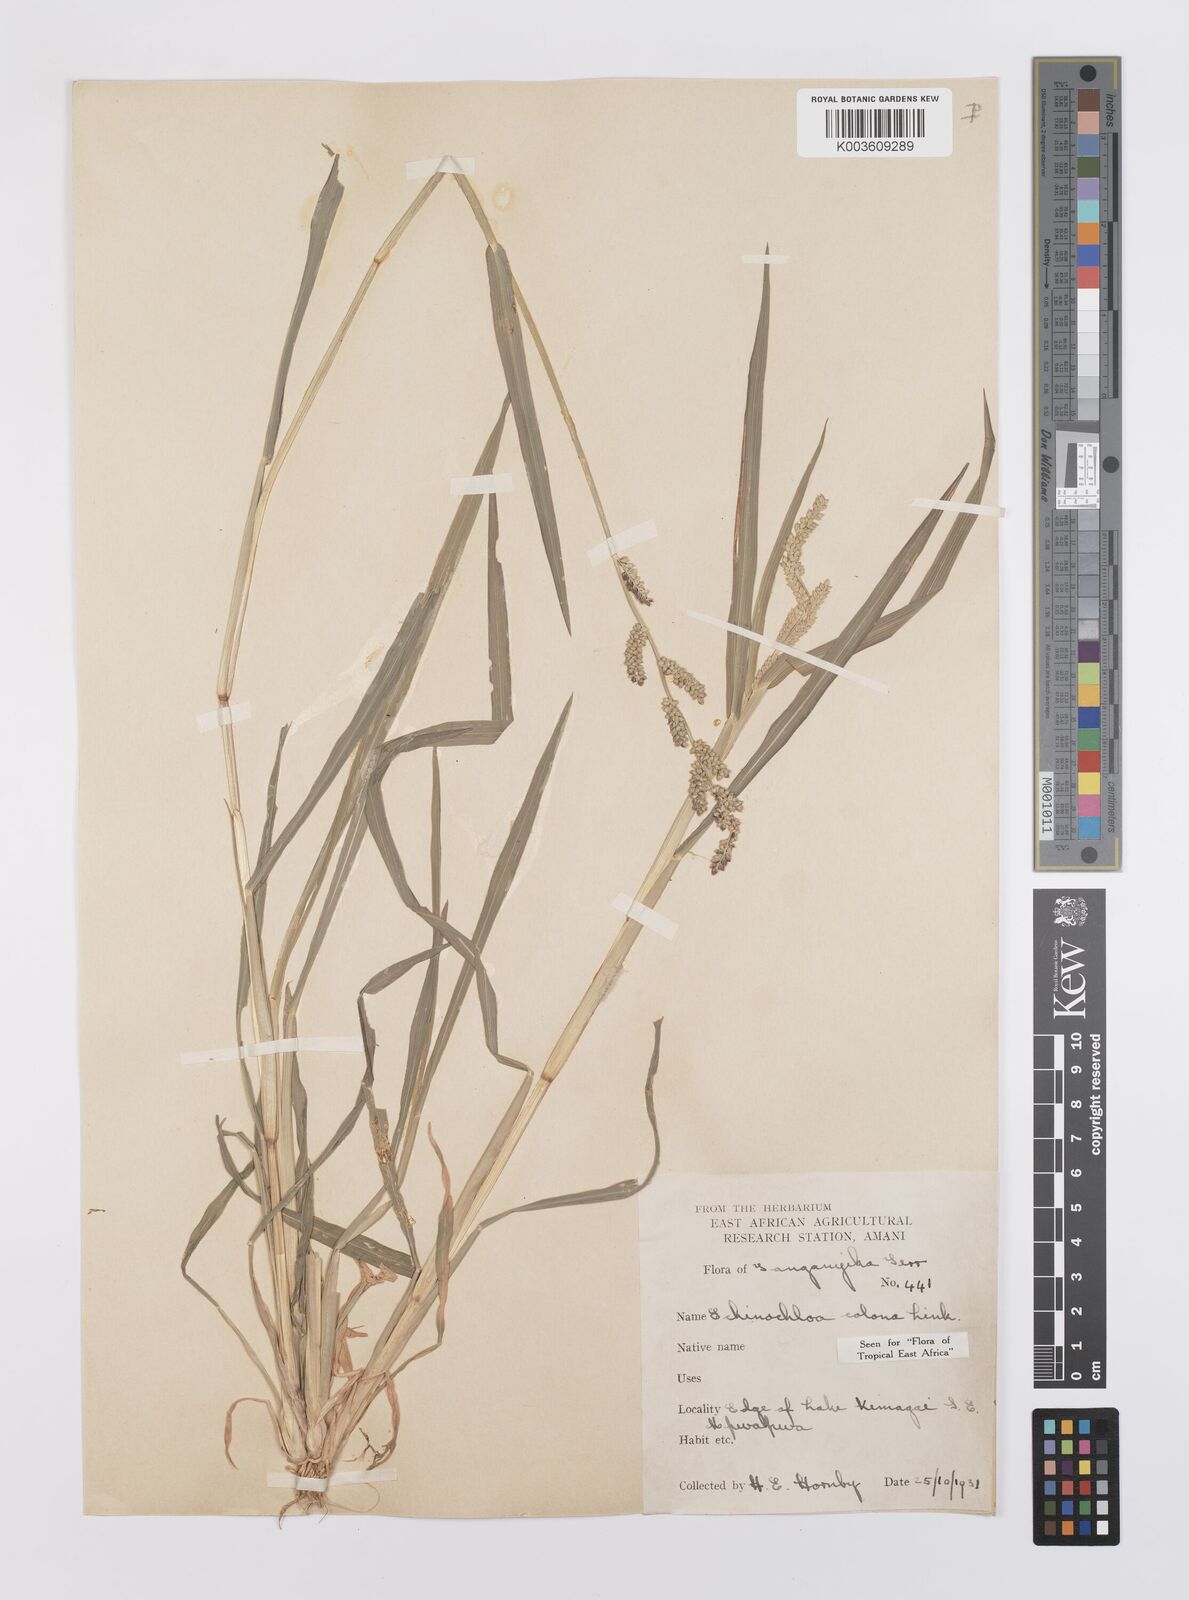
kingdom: Plantae
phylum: Tracheophyta
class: Liliopsida
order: Poales
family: Poaceae
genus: Echinochloa
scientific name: Echinochloa colonum
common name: Jungle rice
